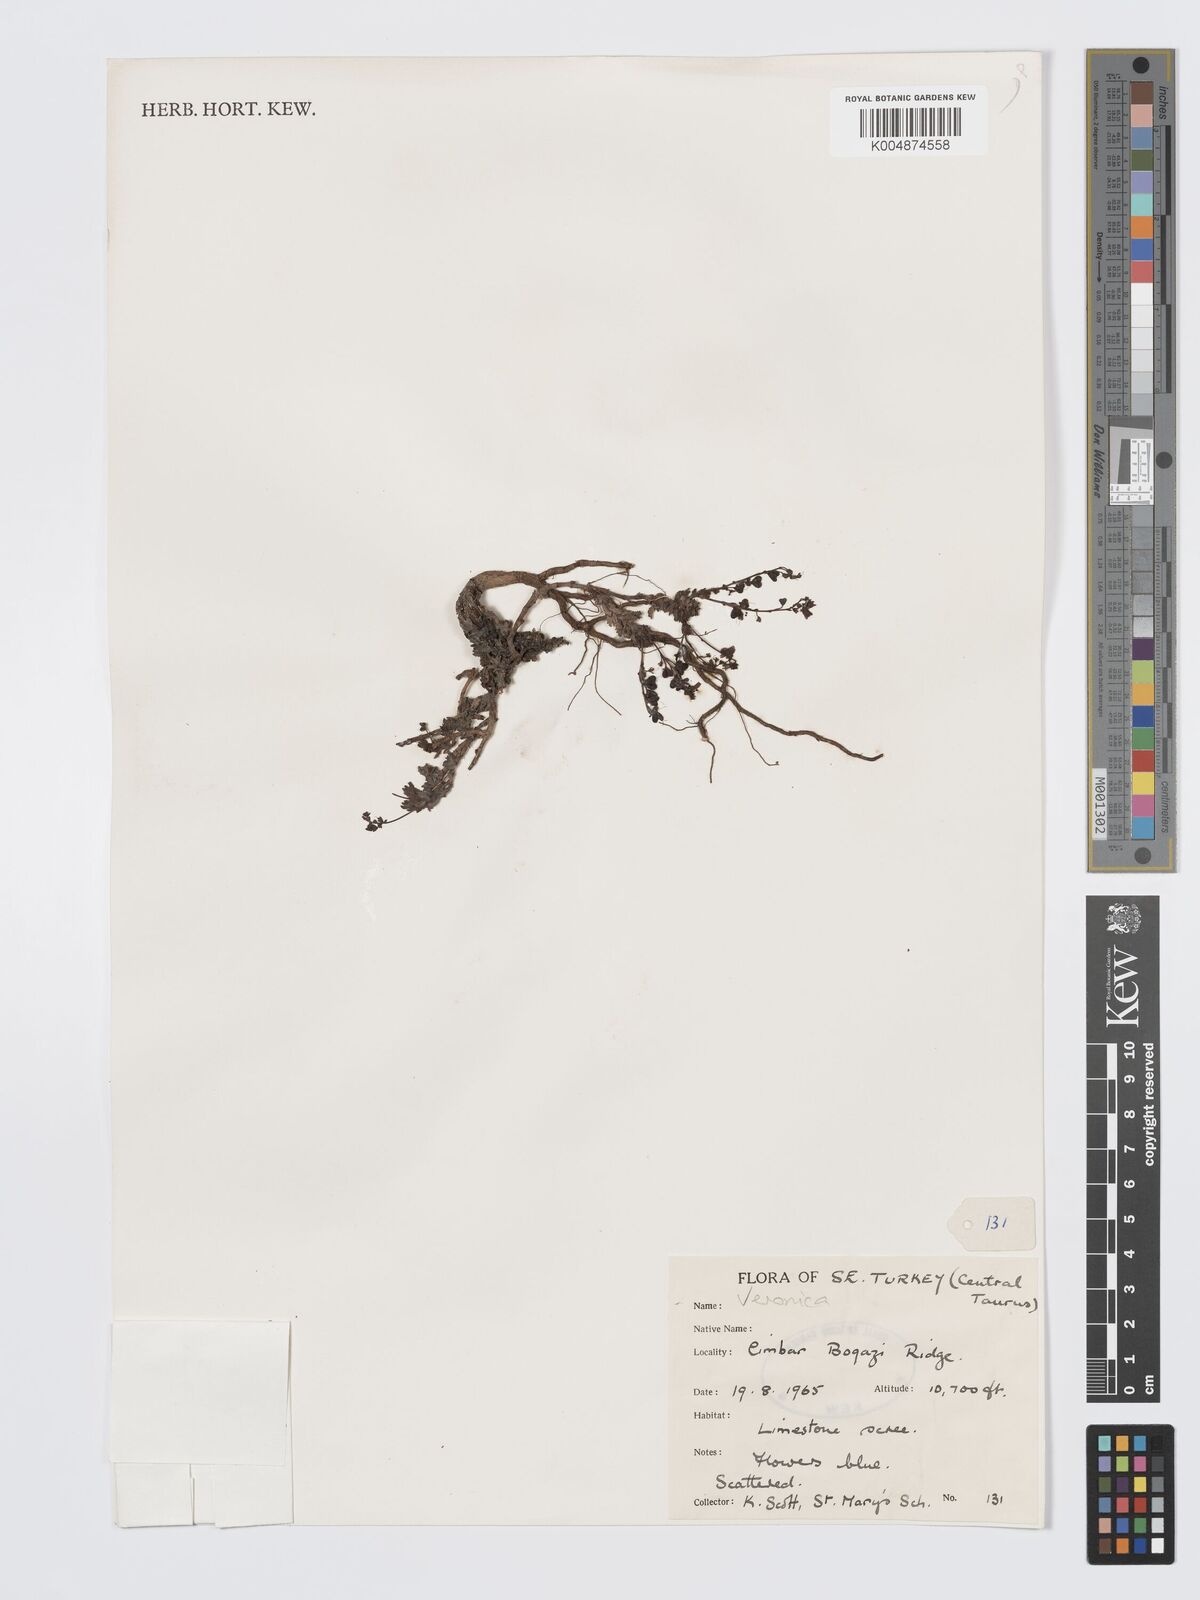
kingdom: Plantae
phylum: Tracheophyta
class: Magnoliopsida
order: Lamiales
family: Plantaginaceae
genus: Veronica
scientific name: Veronica
